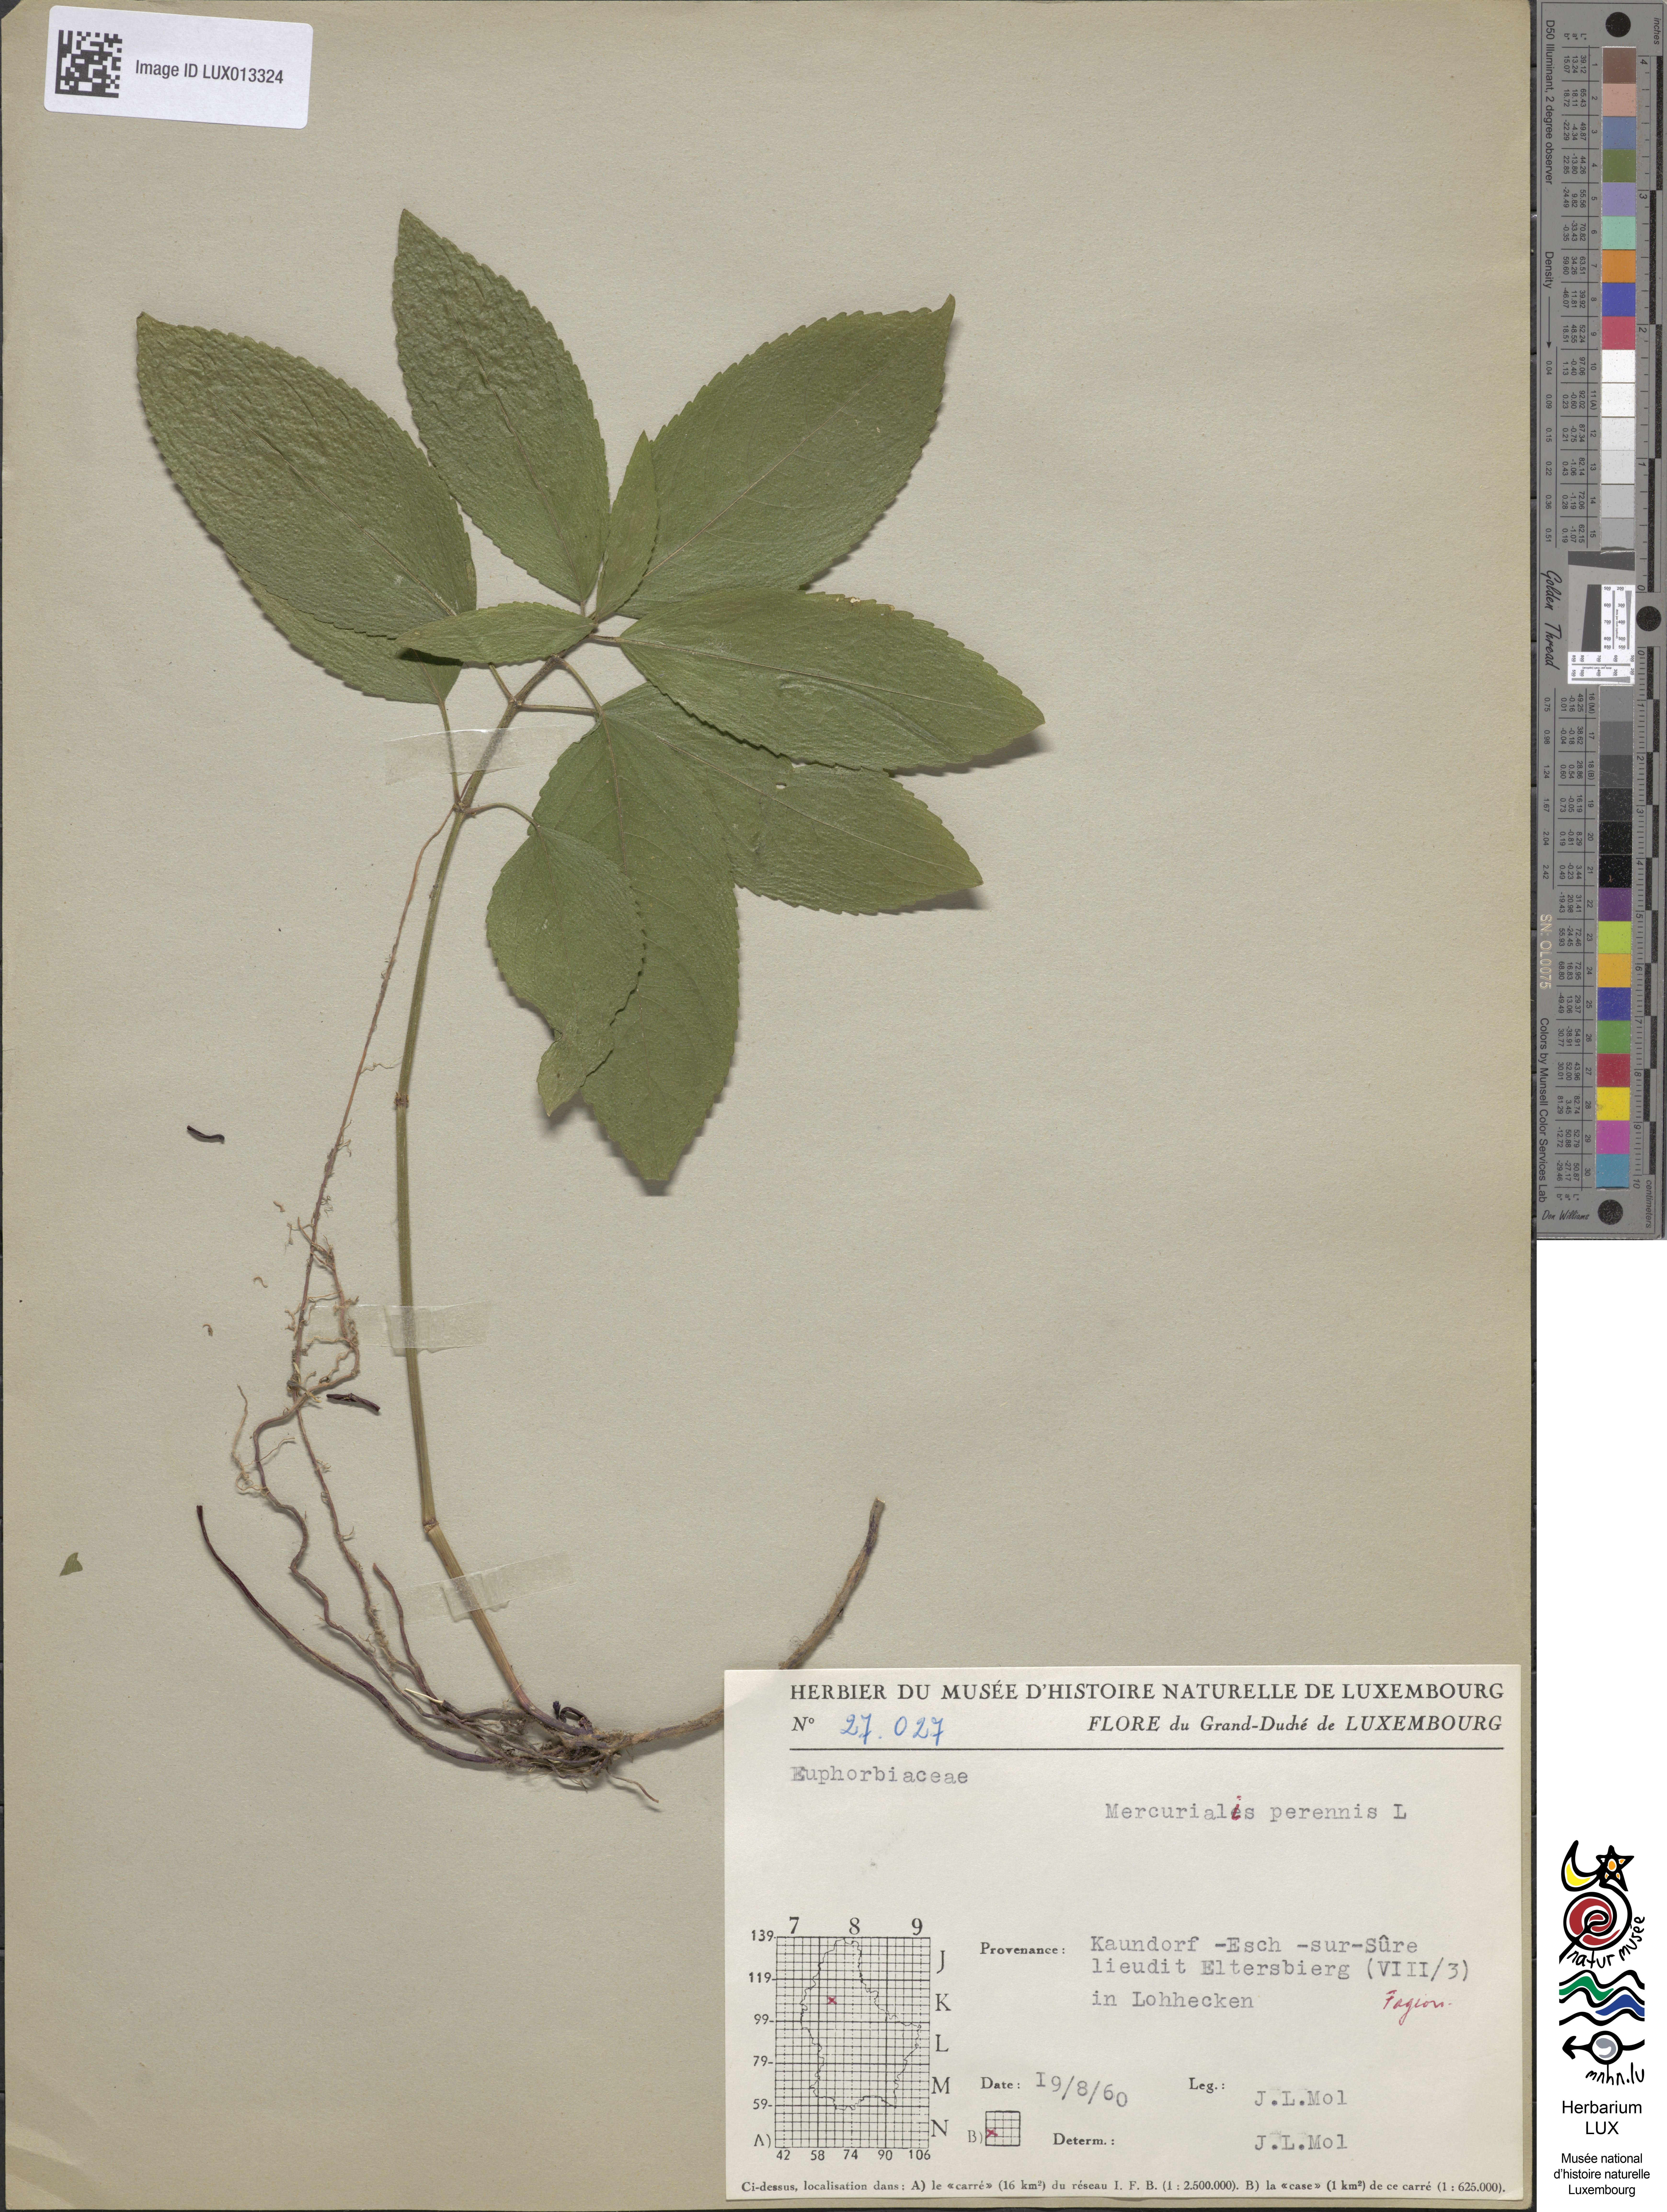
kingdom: Plantae
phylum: Tracheophyta
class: Magnoliopsida
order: Malpighiales
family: Euphorbiaceae
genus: Mercurialis
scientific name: Mercurialis perennis
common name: Dog mercury
